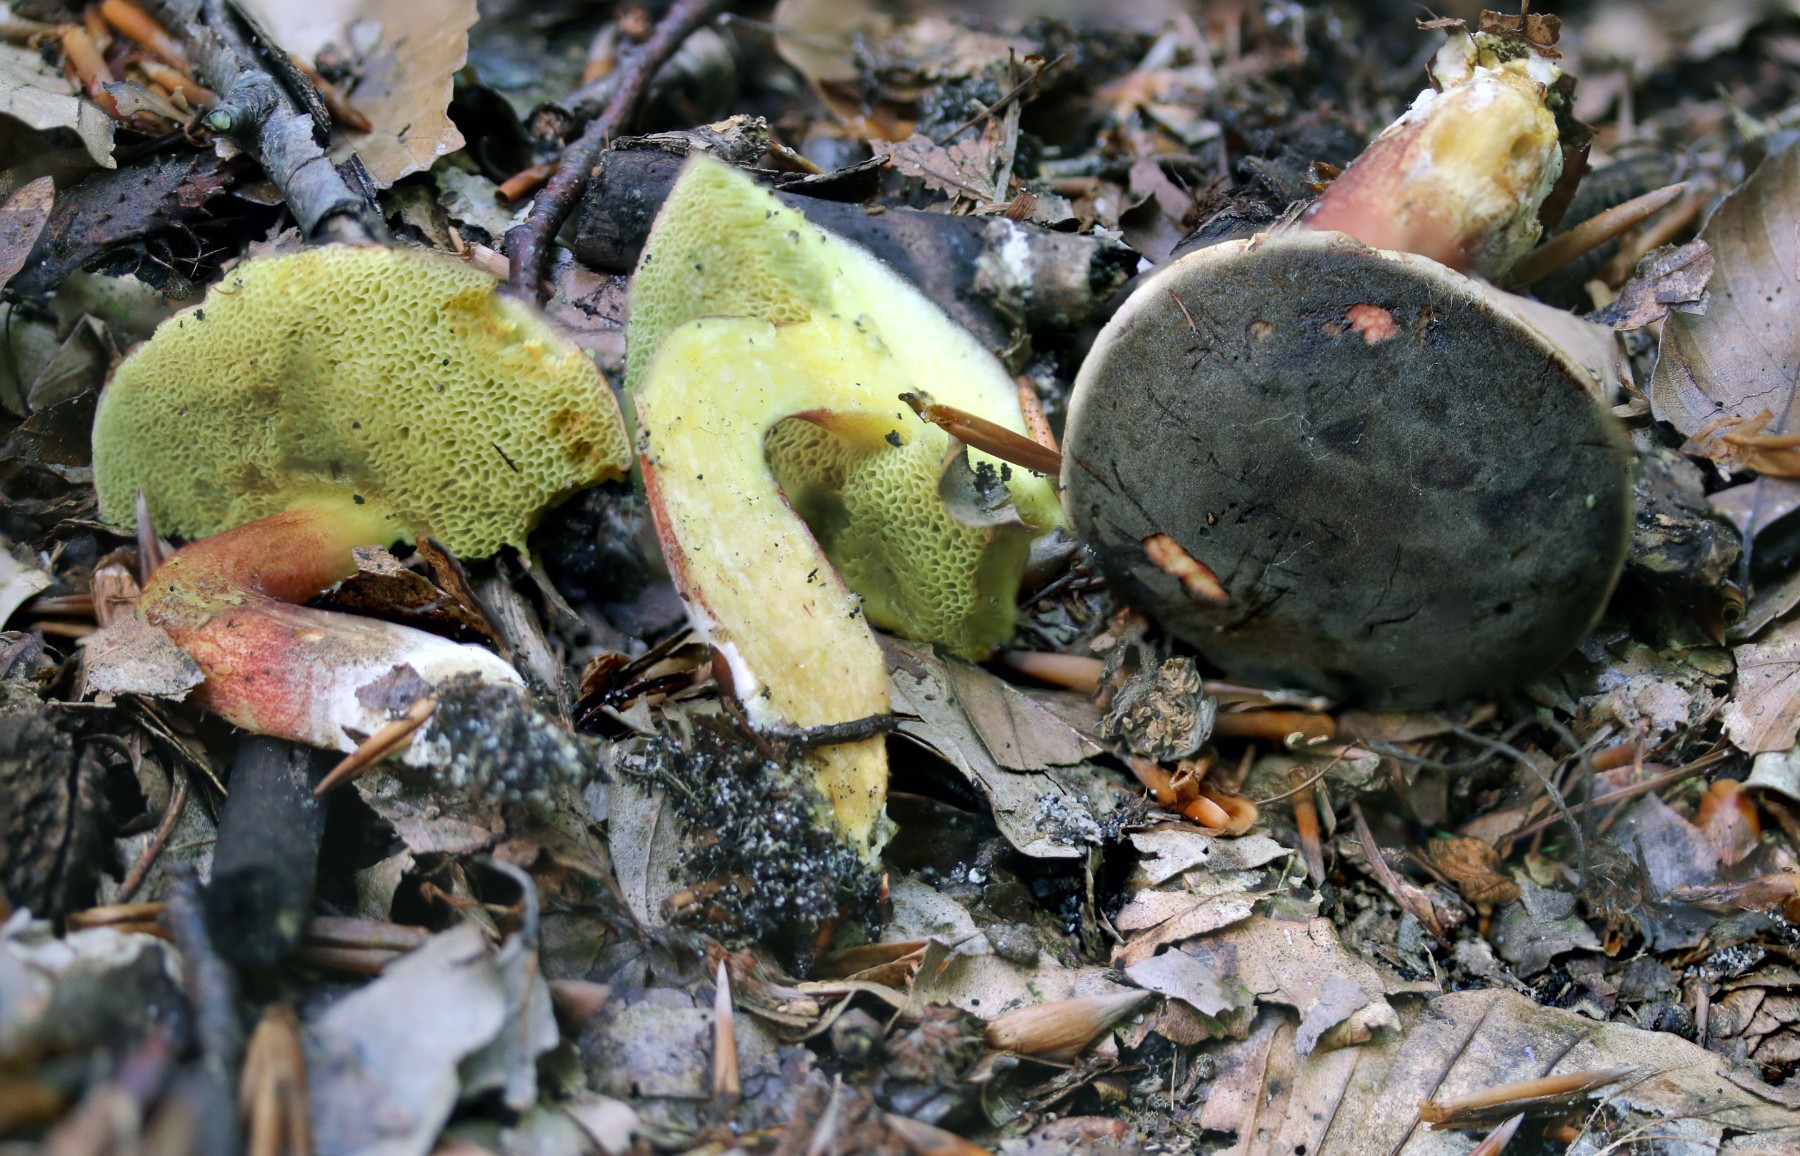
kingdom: Fungi
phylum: Basidiomycota
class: Agaricomycetes
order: Boletales
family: Boletaceae
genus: Xerocomellus
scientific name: Xerocomellus chrysenteron
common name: rødsprukken rørhat
